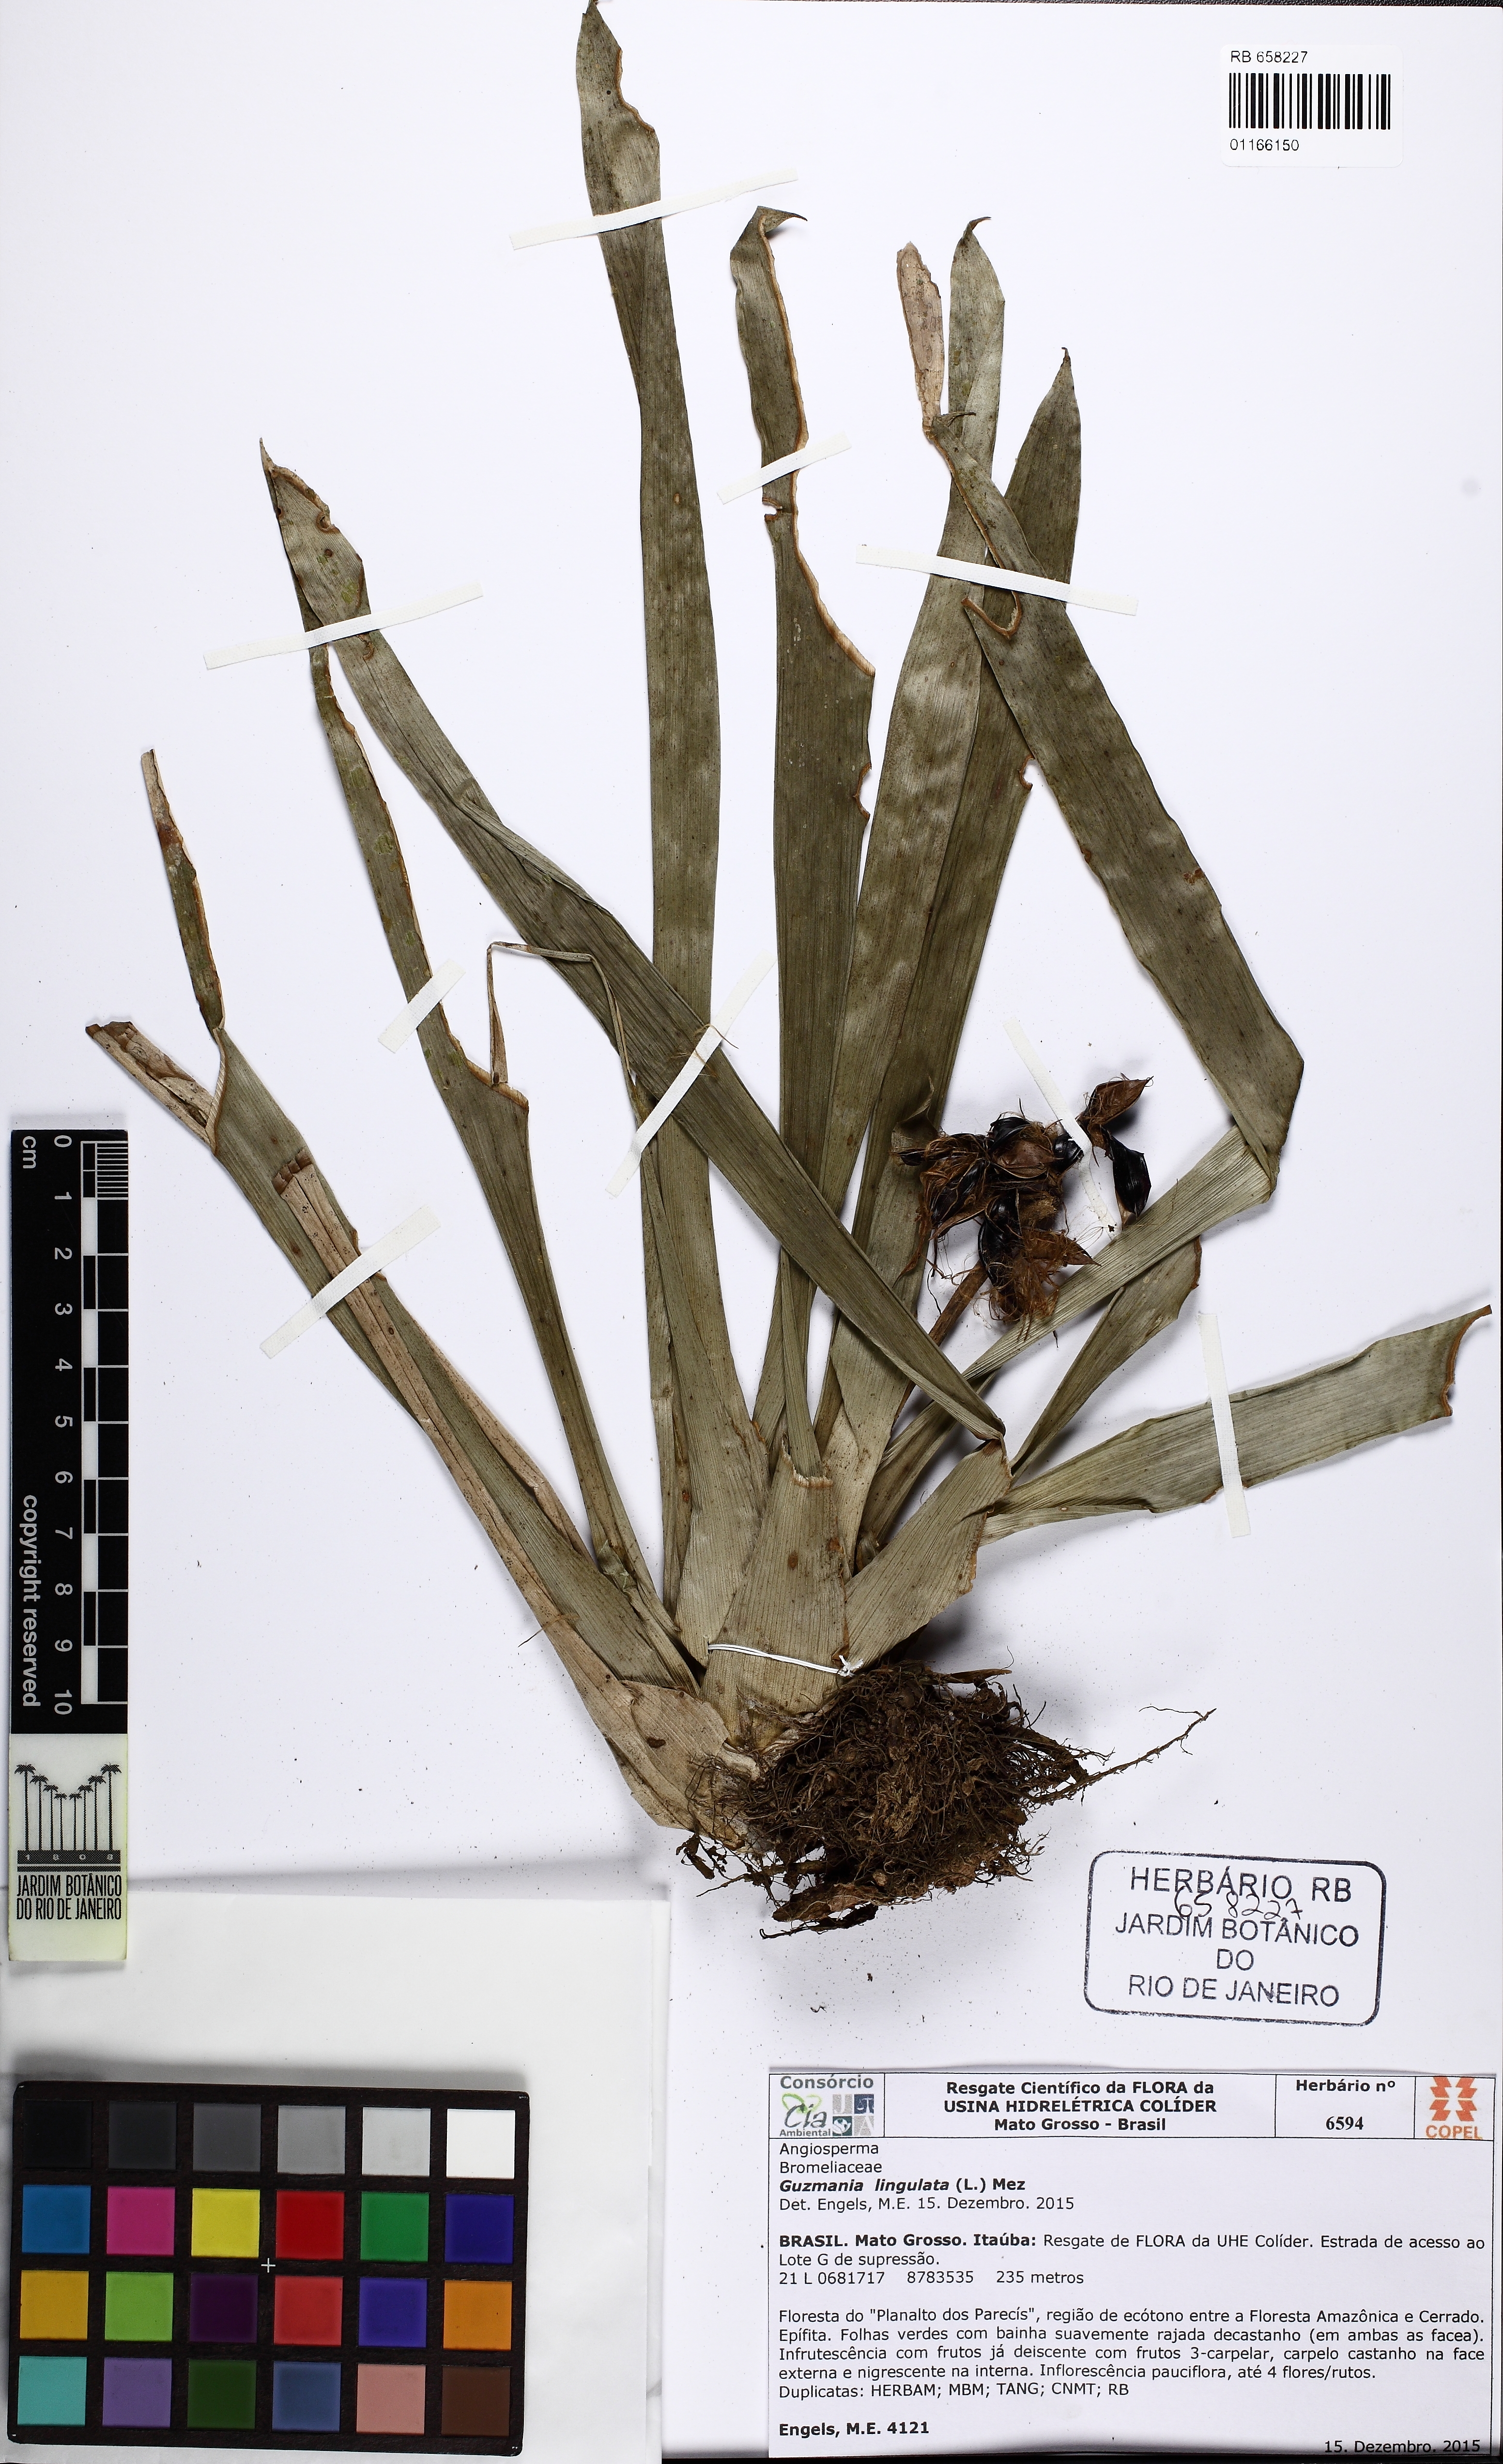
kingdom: Plantae
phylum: Tracheophyta
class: Liliopsida
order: Poales
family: Bromeliaceae
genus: Guzmania
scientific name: Guzmania lingulata
